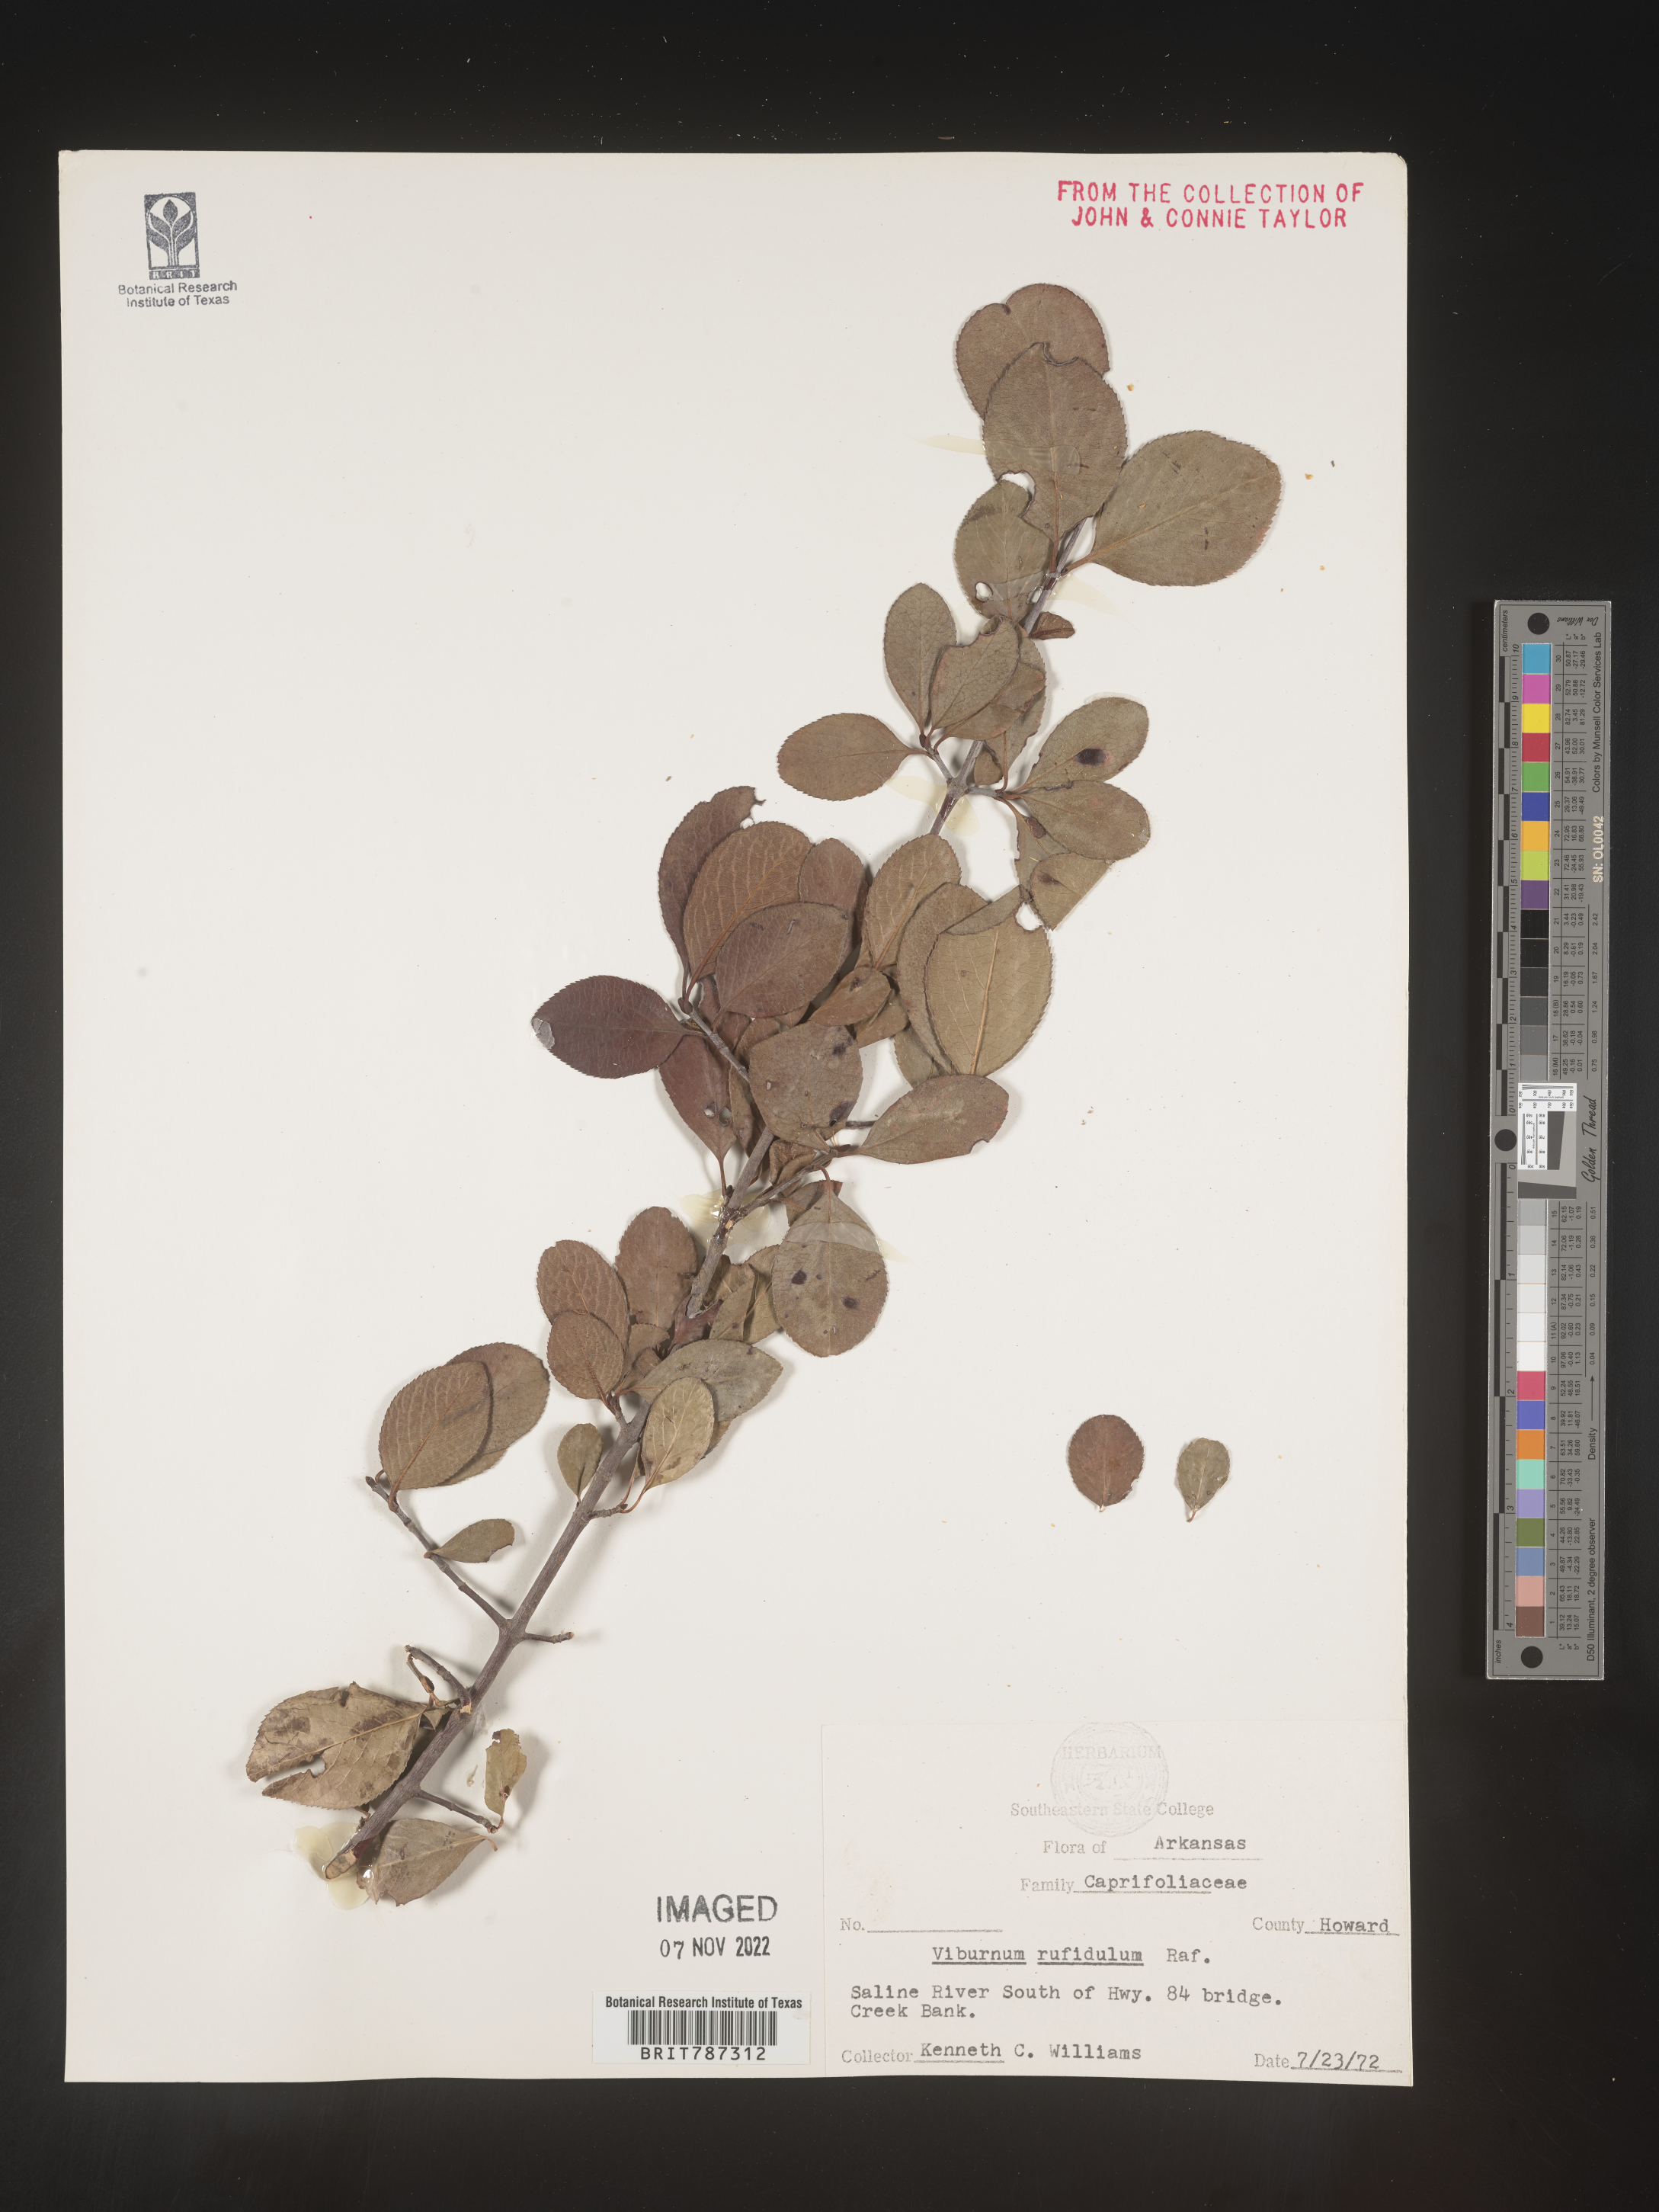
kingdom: Plantae
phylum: Tracheophyta
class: Magnoliopsida
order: Dipsacales
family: Viburnaceae
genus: Viburnum
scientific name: Viburnum rufidulum
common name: Blue haw
